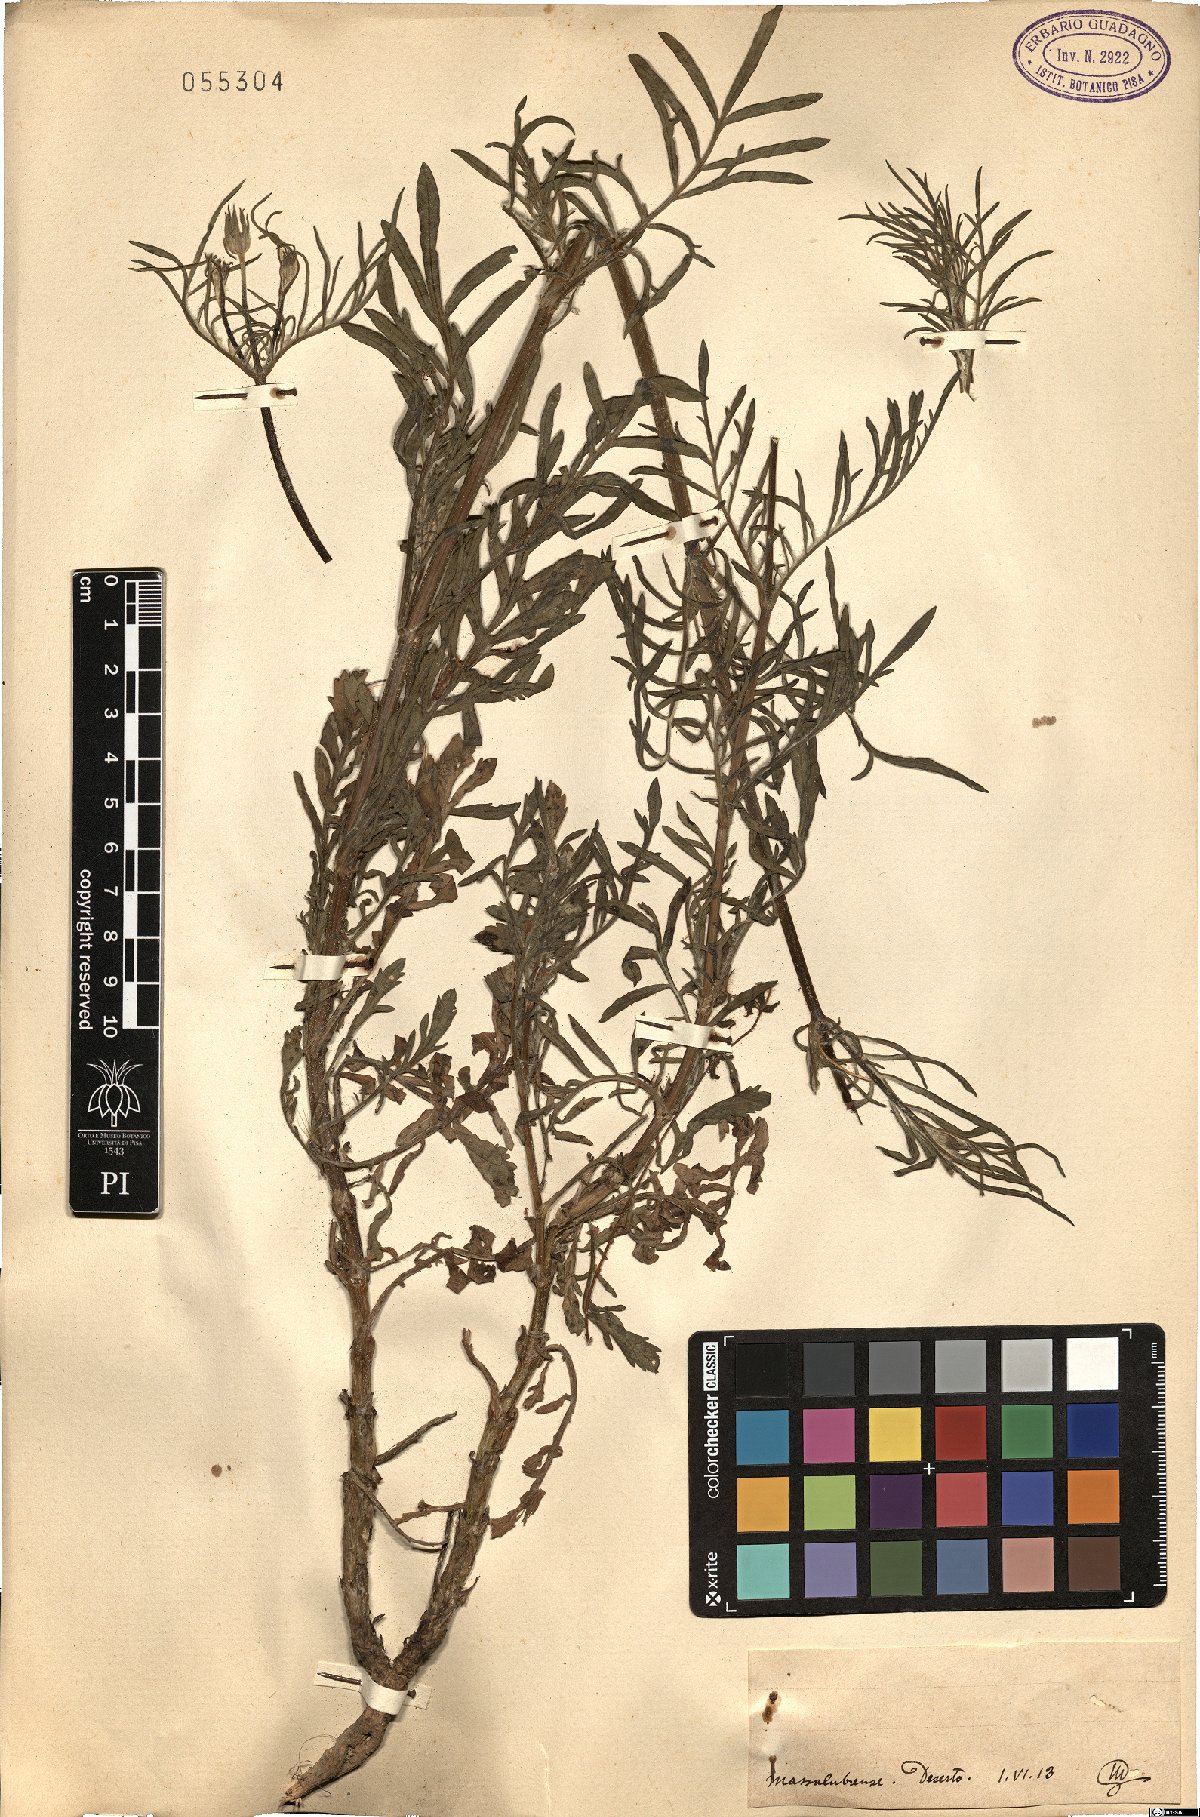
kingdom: Plantae
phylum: Tracheophyta
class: Magnoliopsida
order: Dipsacales
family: Caprifoliaceae
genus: Scabiosa
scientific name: Scabiosa
